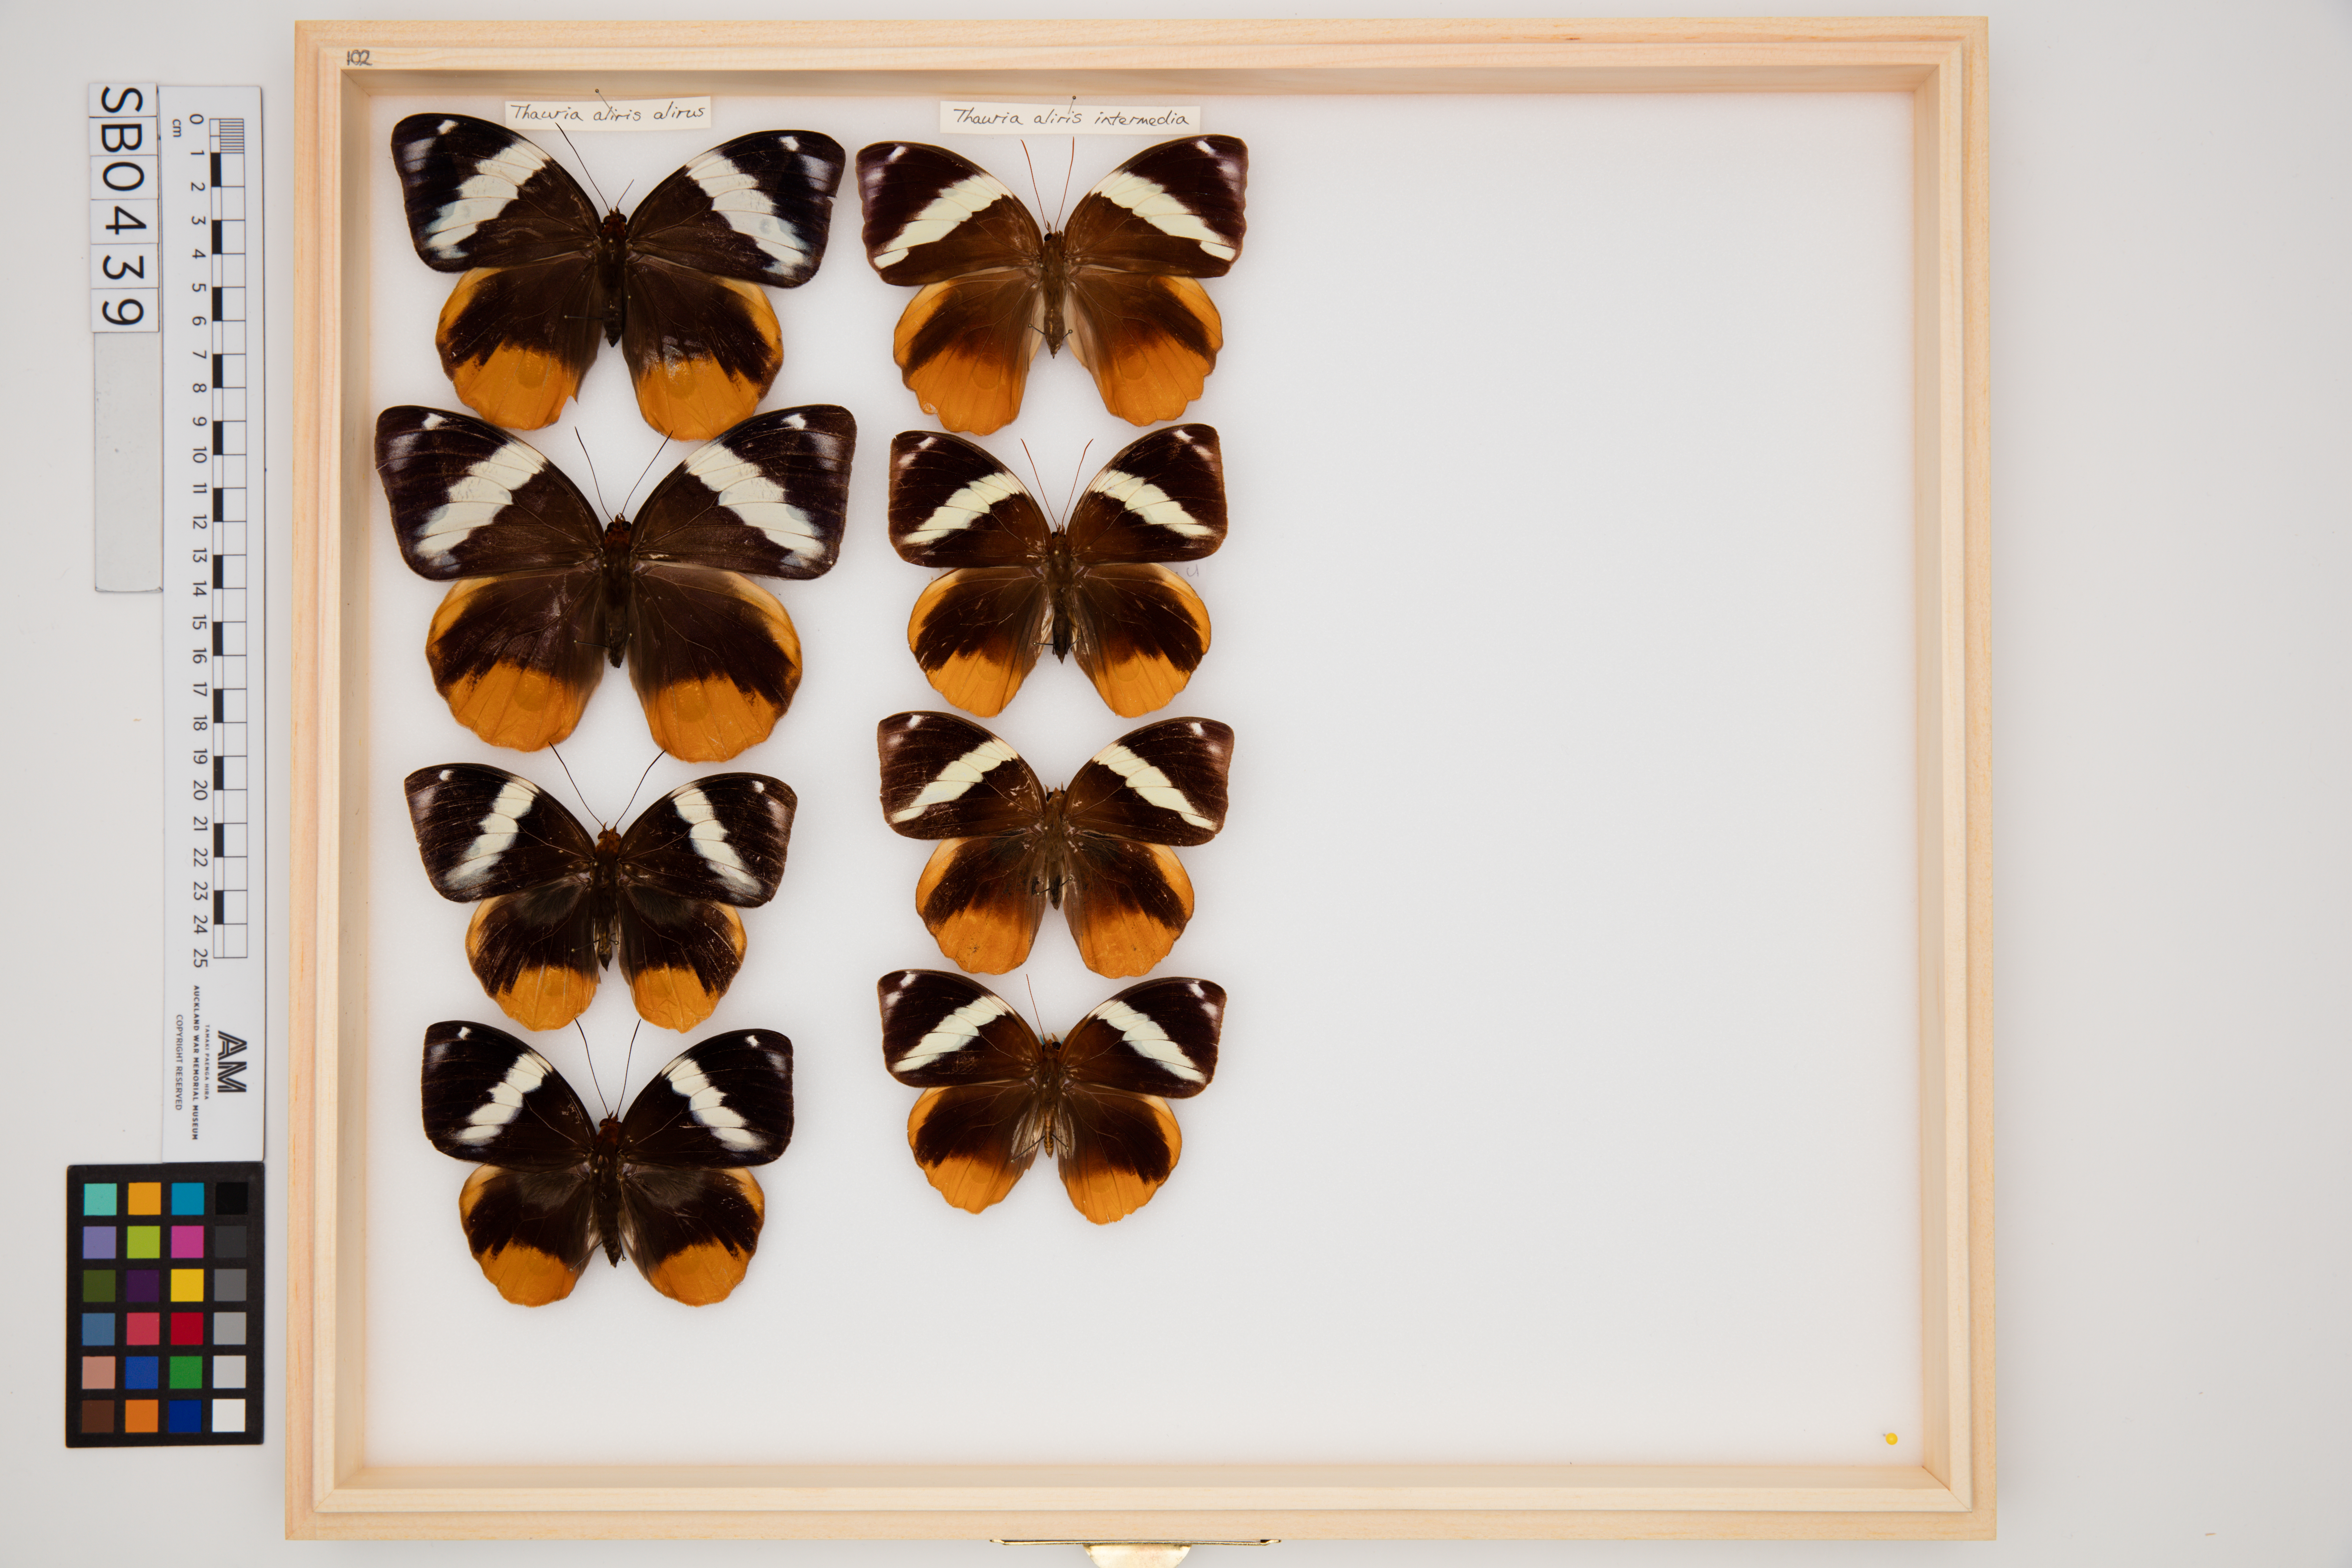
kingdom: Animalia
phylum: Arthropoda
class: Insecta
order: Lepidoptera
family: Nymphalidae
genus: Thauria
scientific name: Thauria aliris
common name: Tufted jungle king
